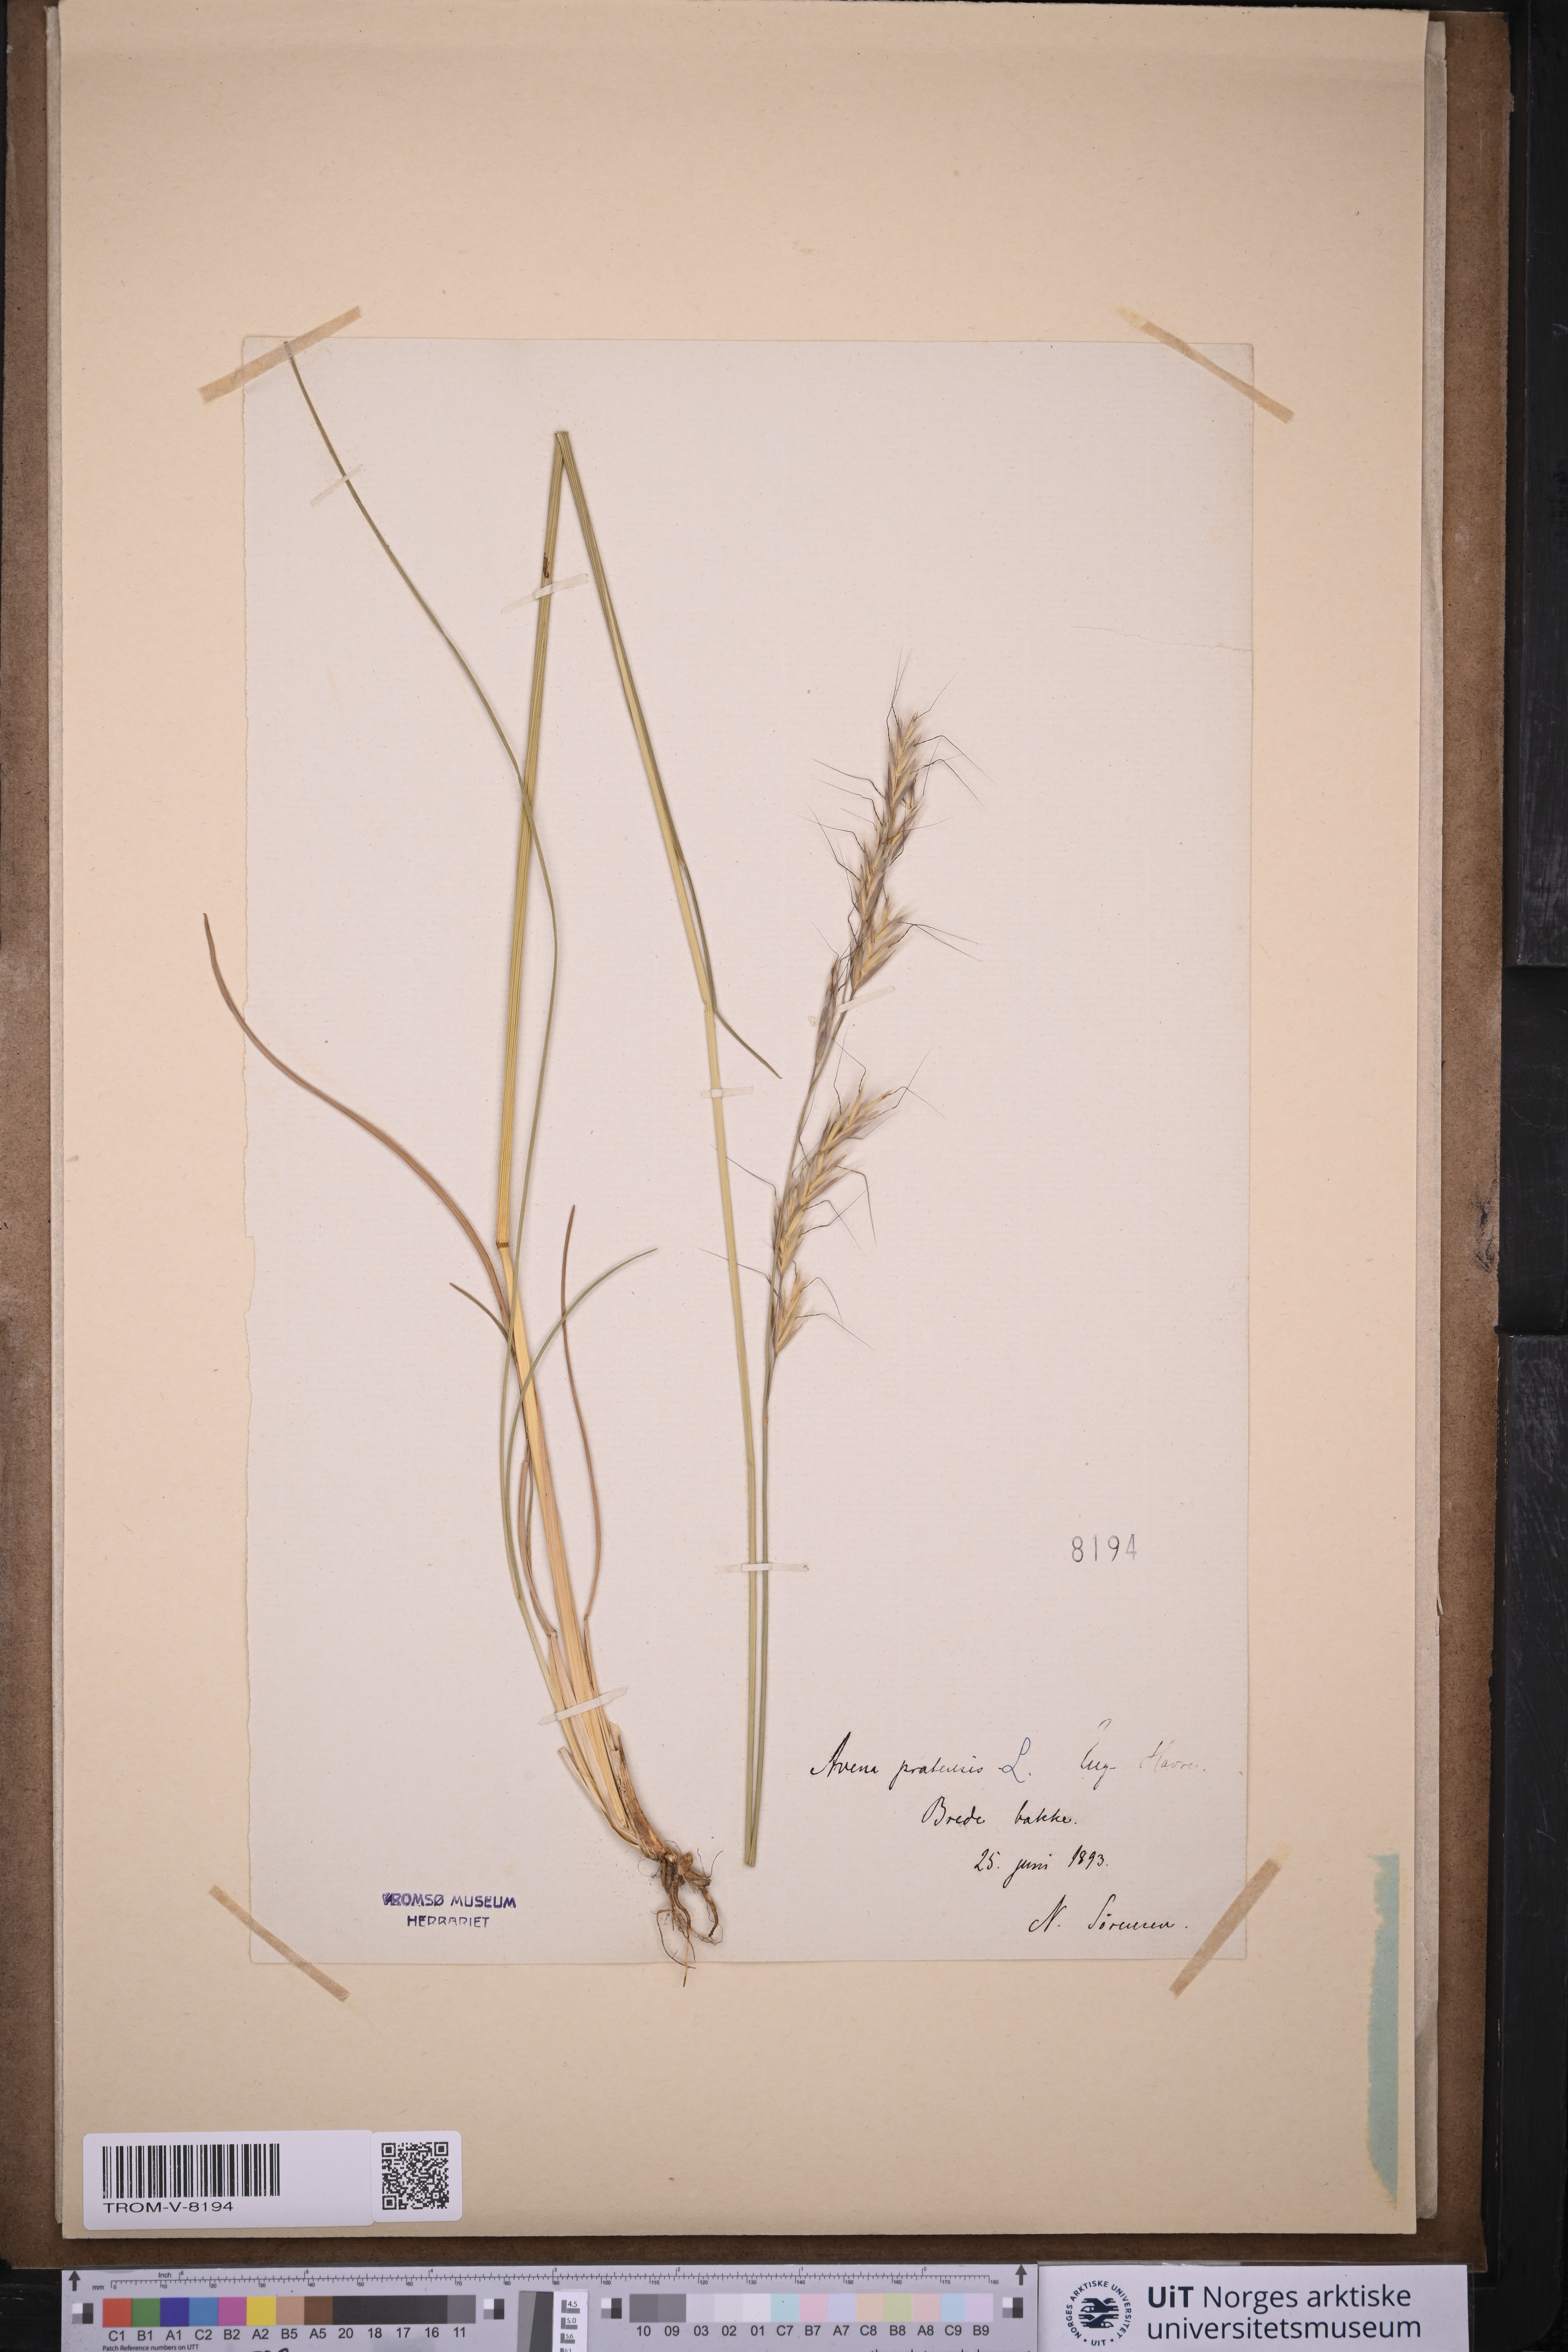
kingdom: Plantae
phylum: Tracheophyta
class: Liliopsida
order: Poales
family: Poaceae
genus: Helictochloa
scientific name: Helictochloa pratensis
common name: Meadow oat grass
